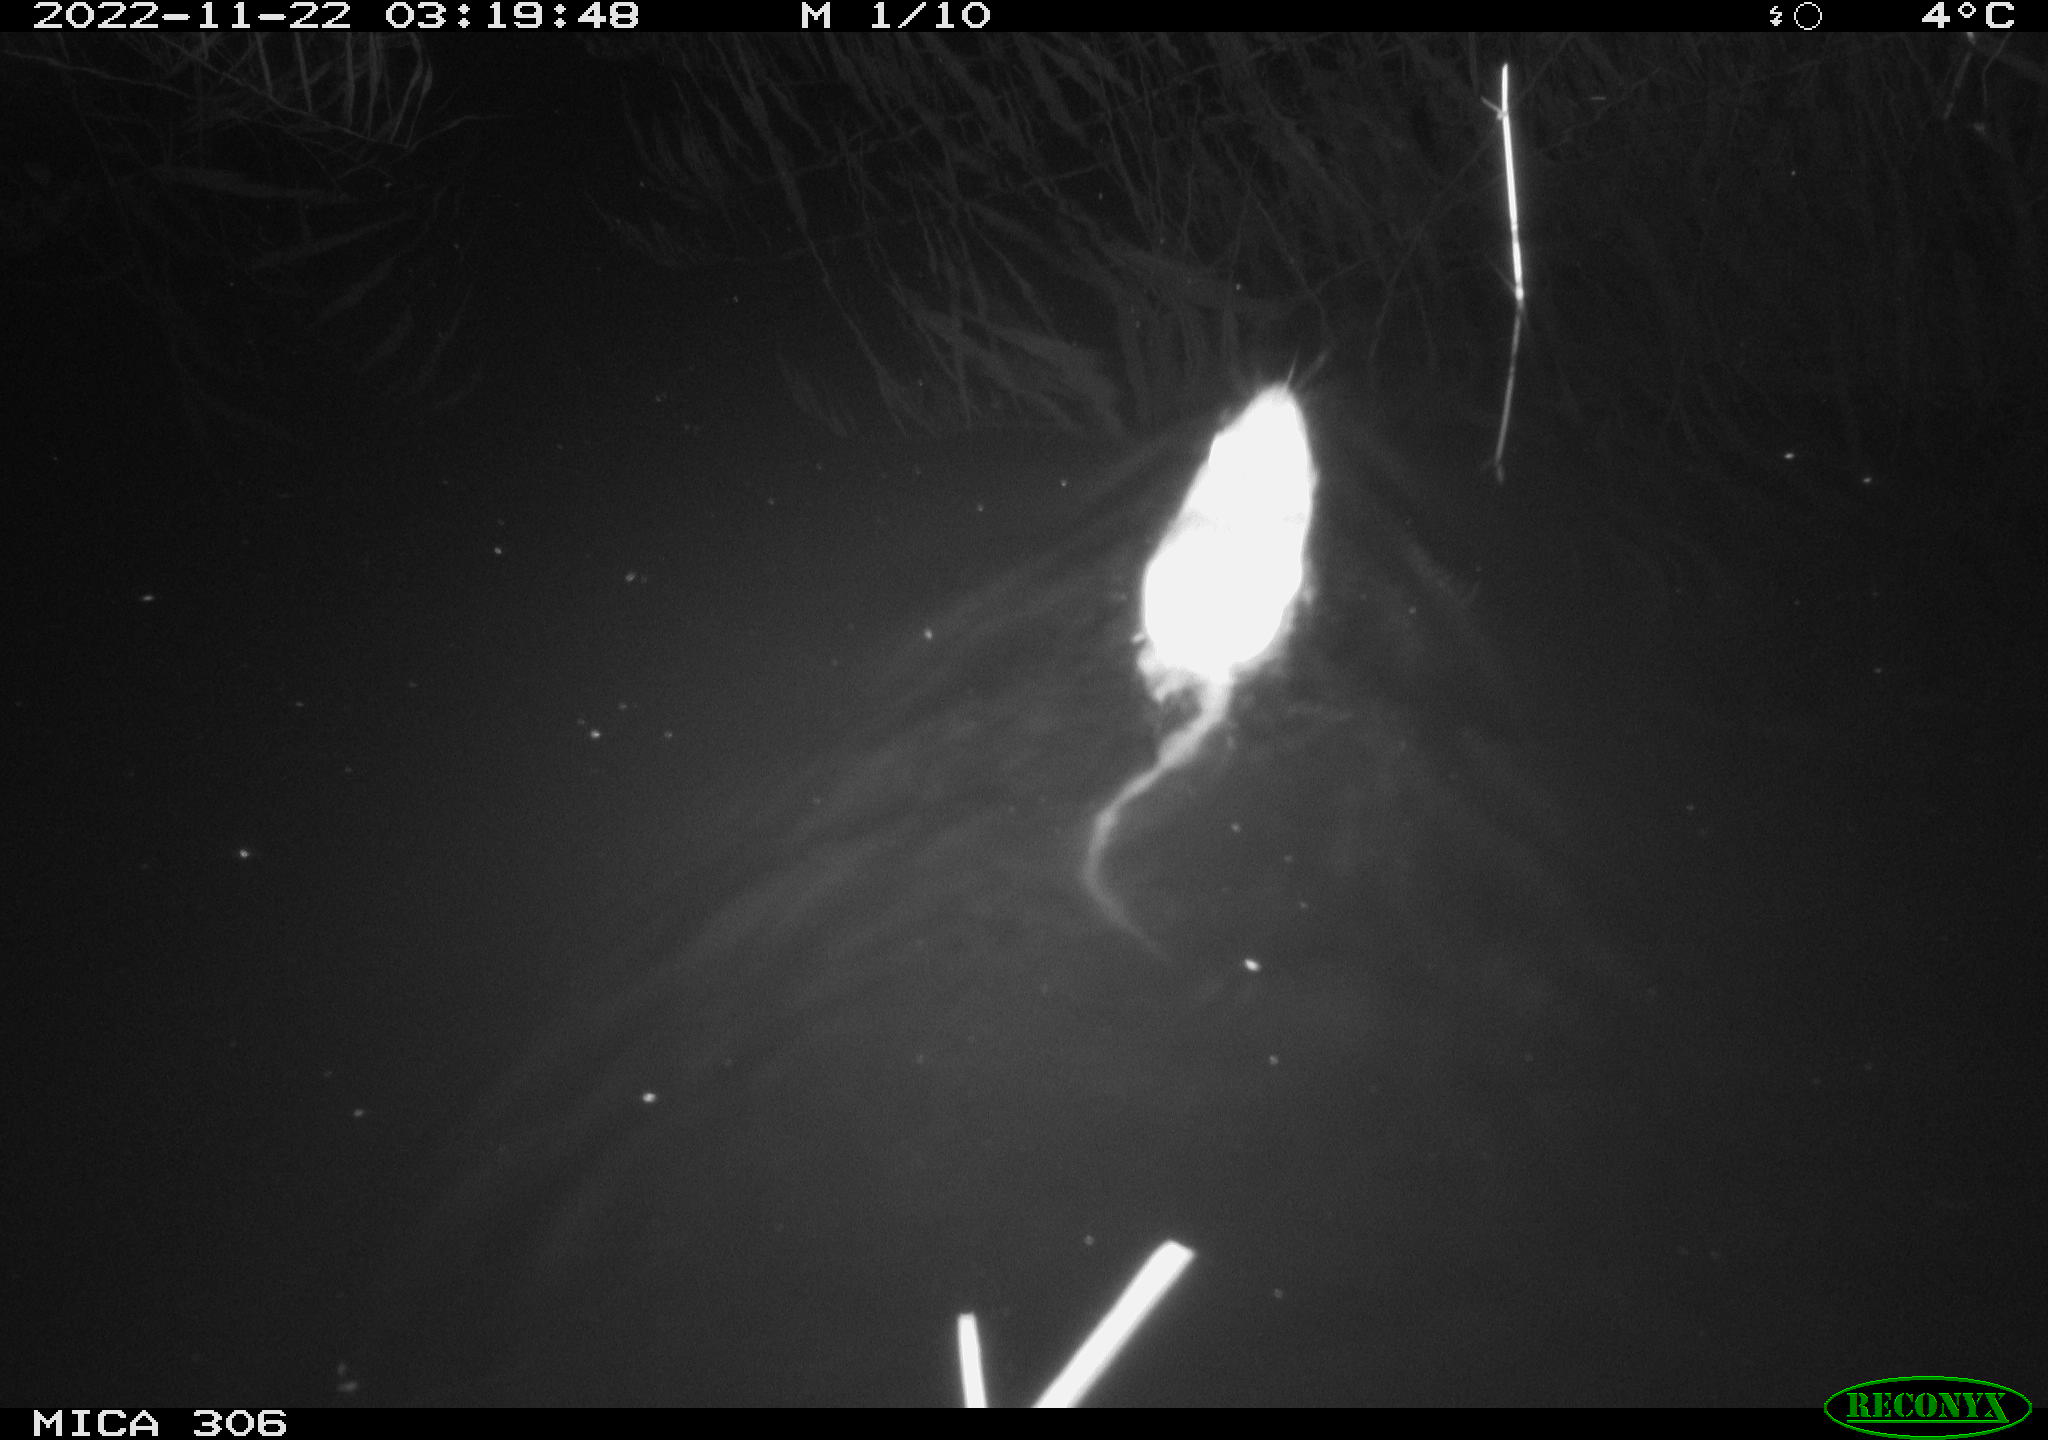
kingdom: Animalia
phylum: Chordata
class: Mammalia
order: Rodentia
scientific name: Rodentia
